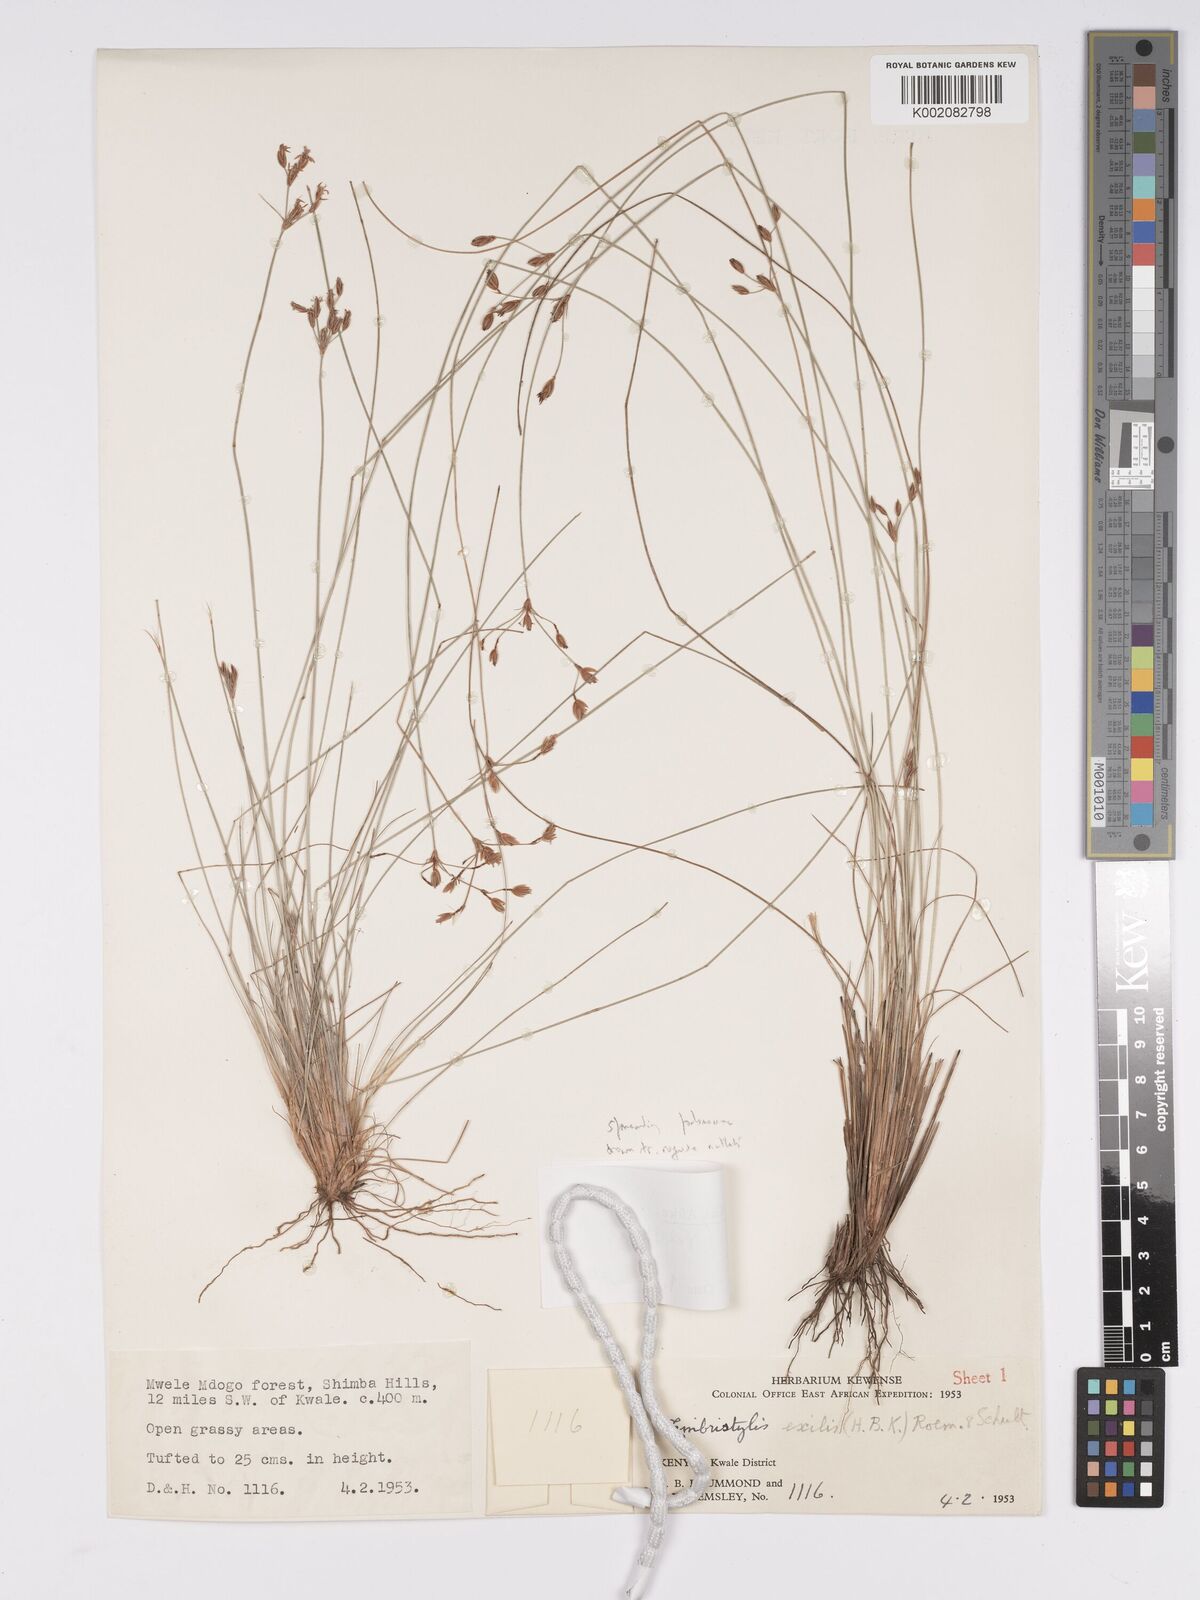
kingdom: Plantae
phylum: Tracheophyta
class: Liliopsida
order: Poales
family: Cyperaceae
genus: Bulbostylis
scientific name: Bulbostylis hispidula
